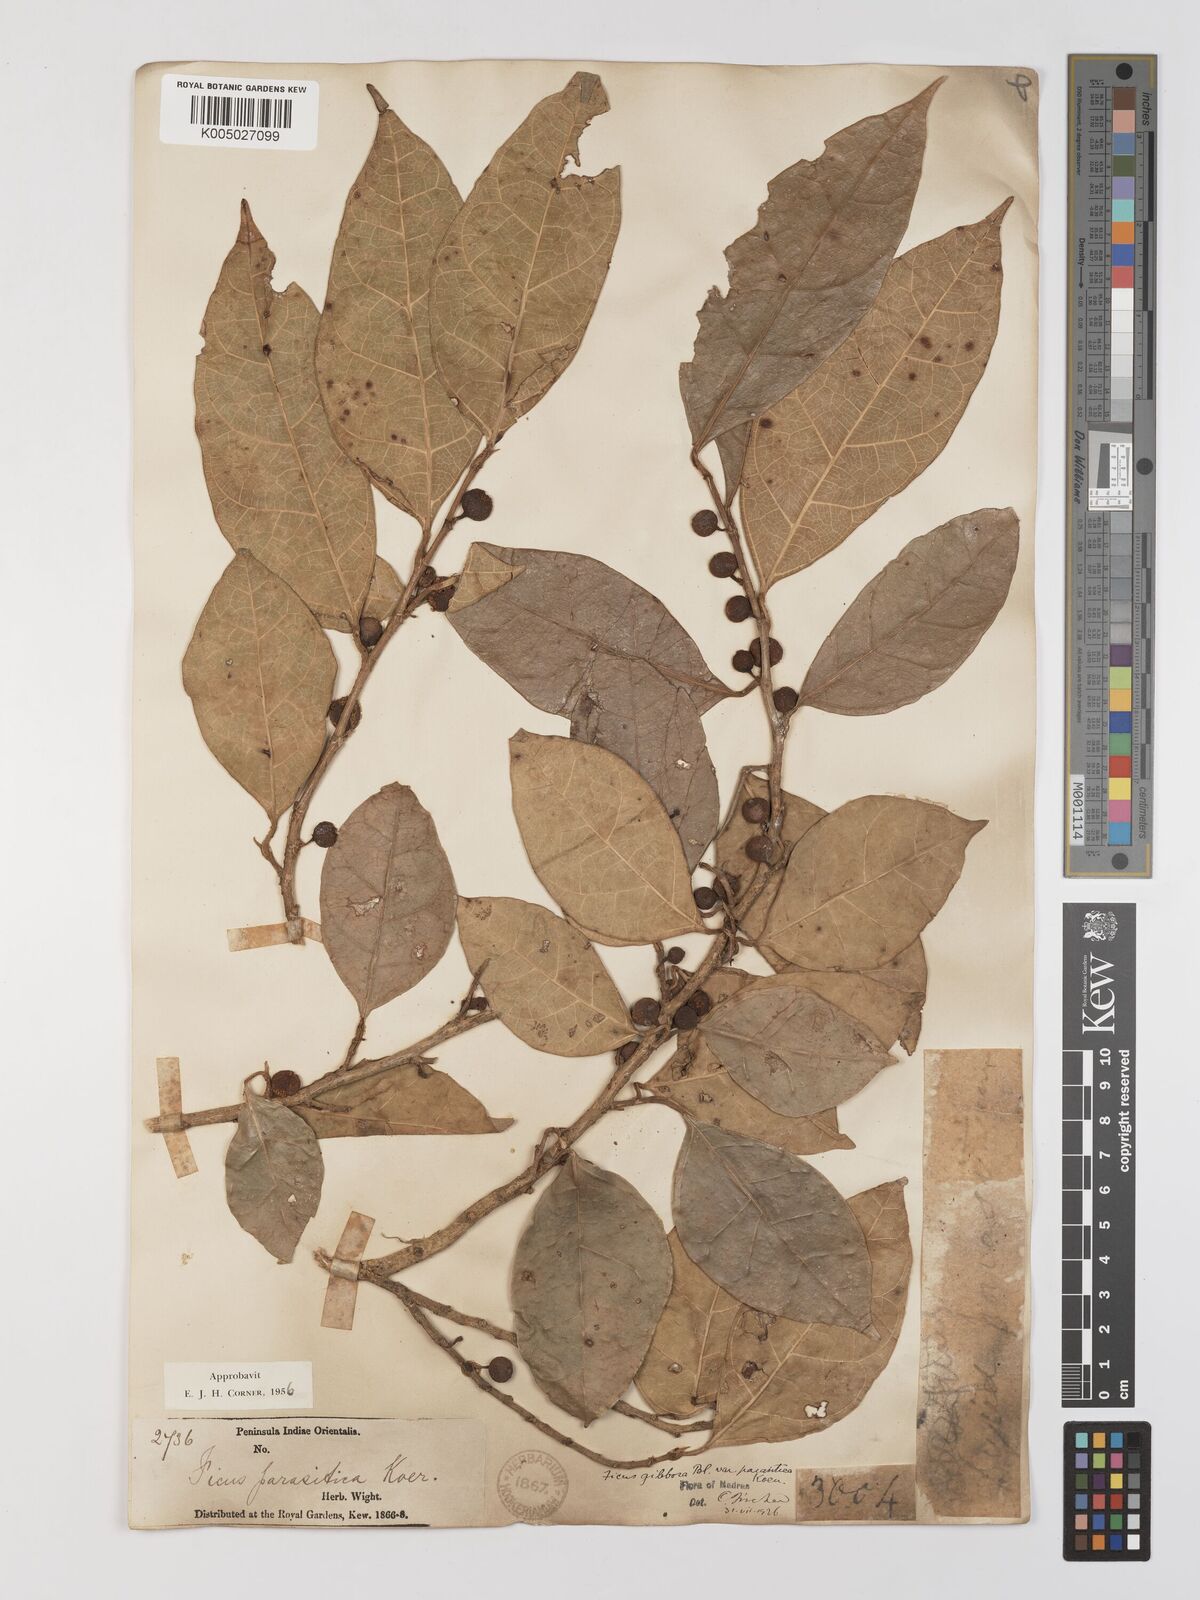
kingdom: Plantae
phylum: Tracheophyta
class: Magnoliopsida
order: Rosales
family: Moraceae
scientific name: Moraceae
